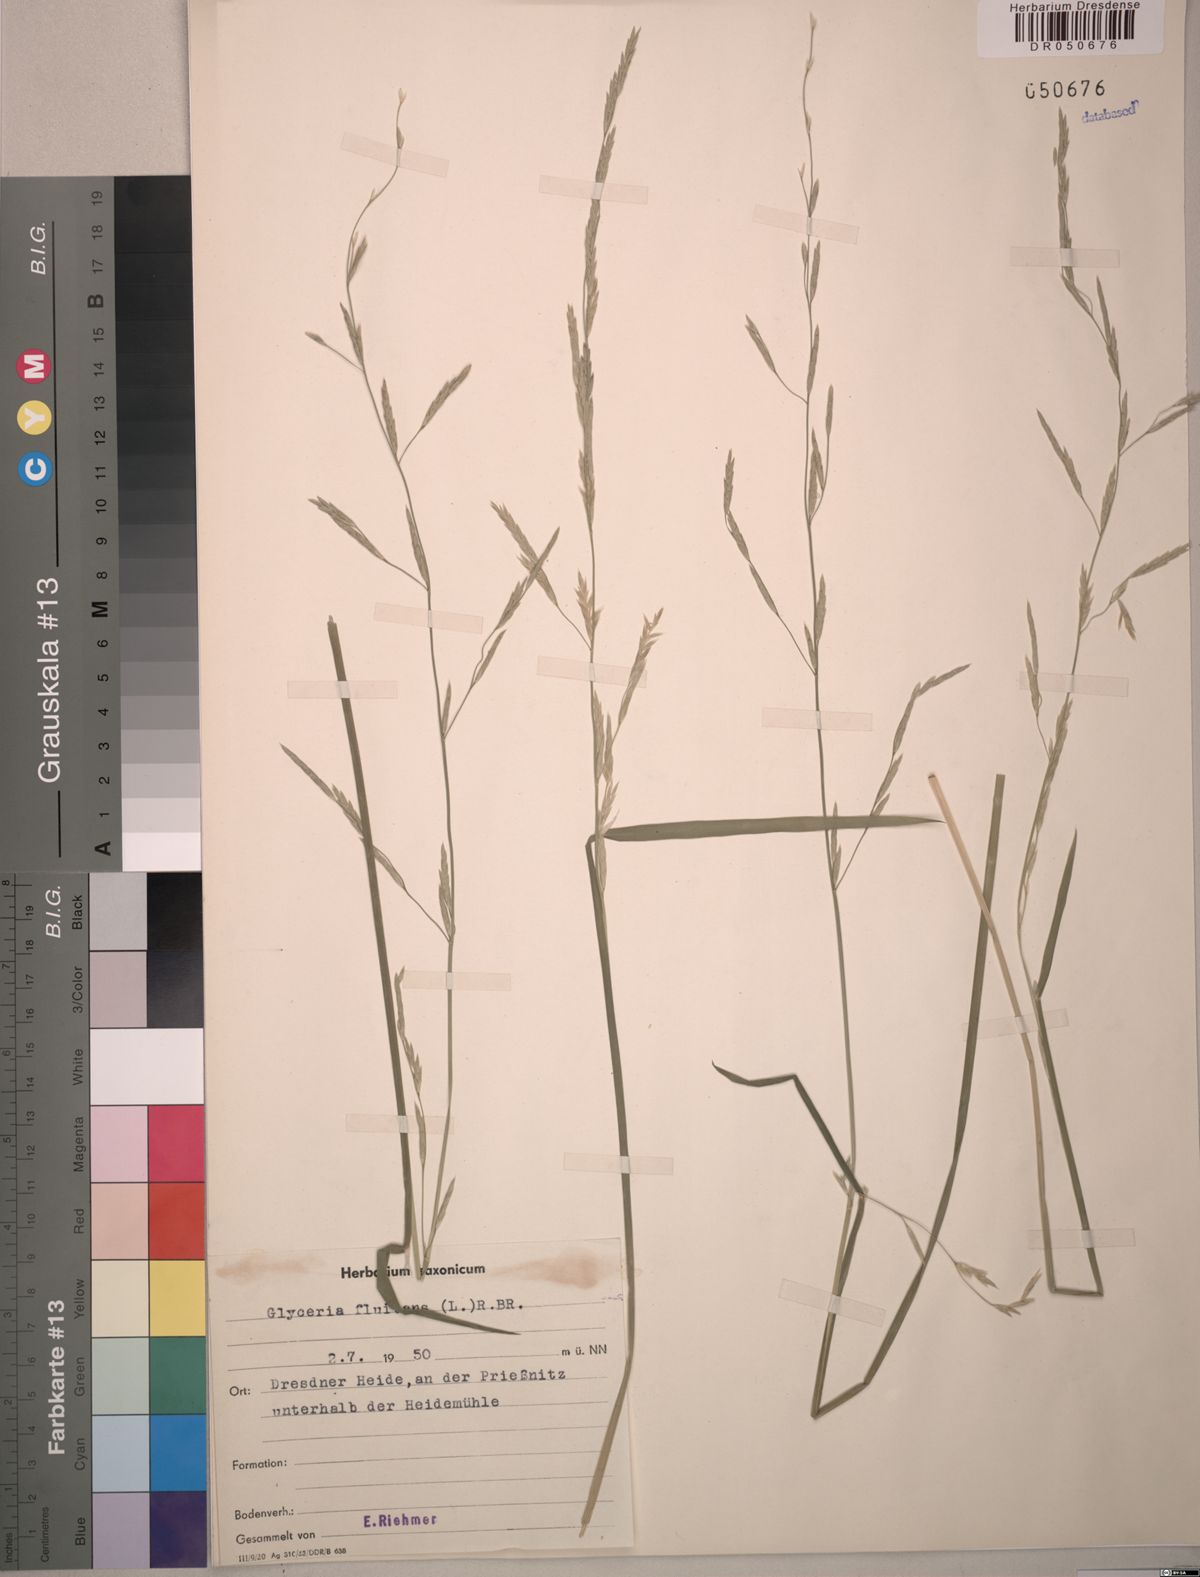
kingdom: Plantae
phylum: Tracheophyta
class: Liliopsida
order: Poales
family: Poaceae
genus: Glyceria
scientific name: Glyceria fluitans
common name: Floating sweet-grass
